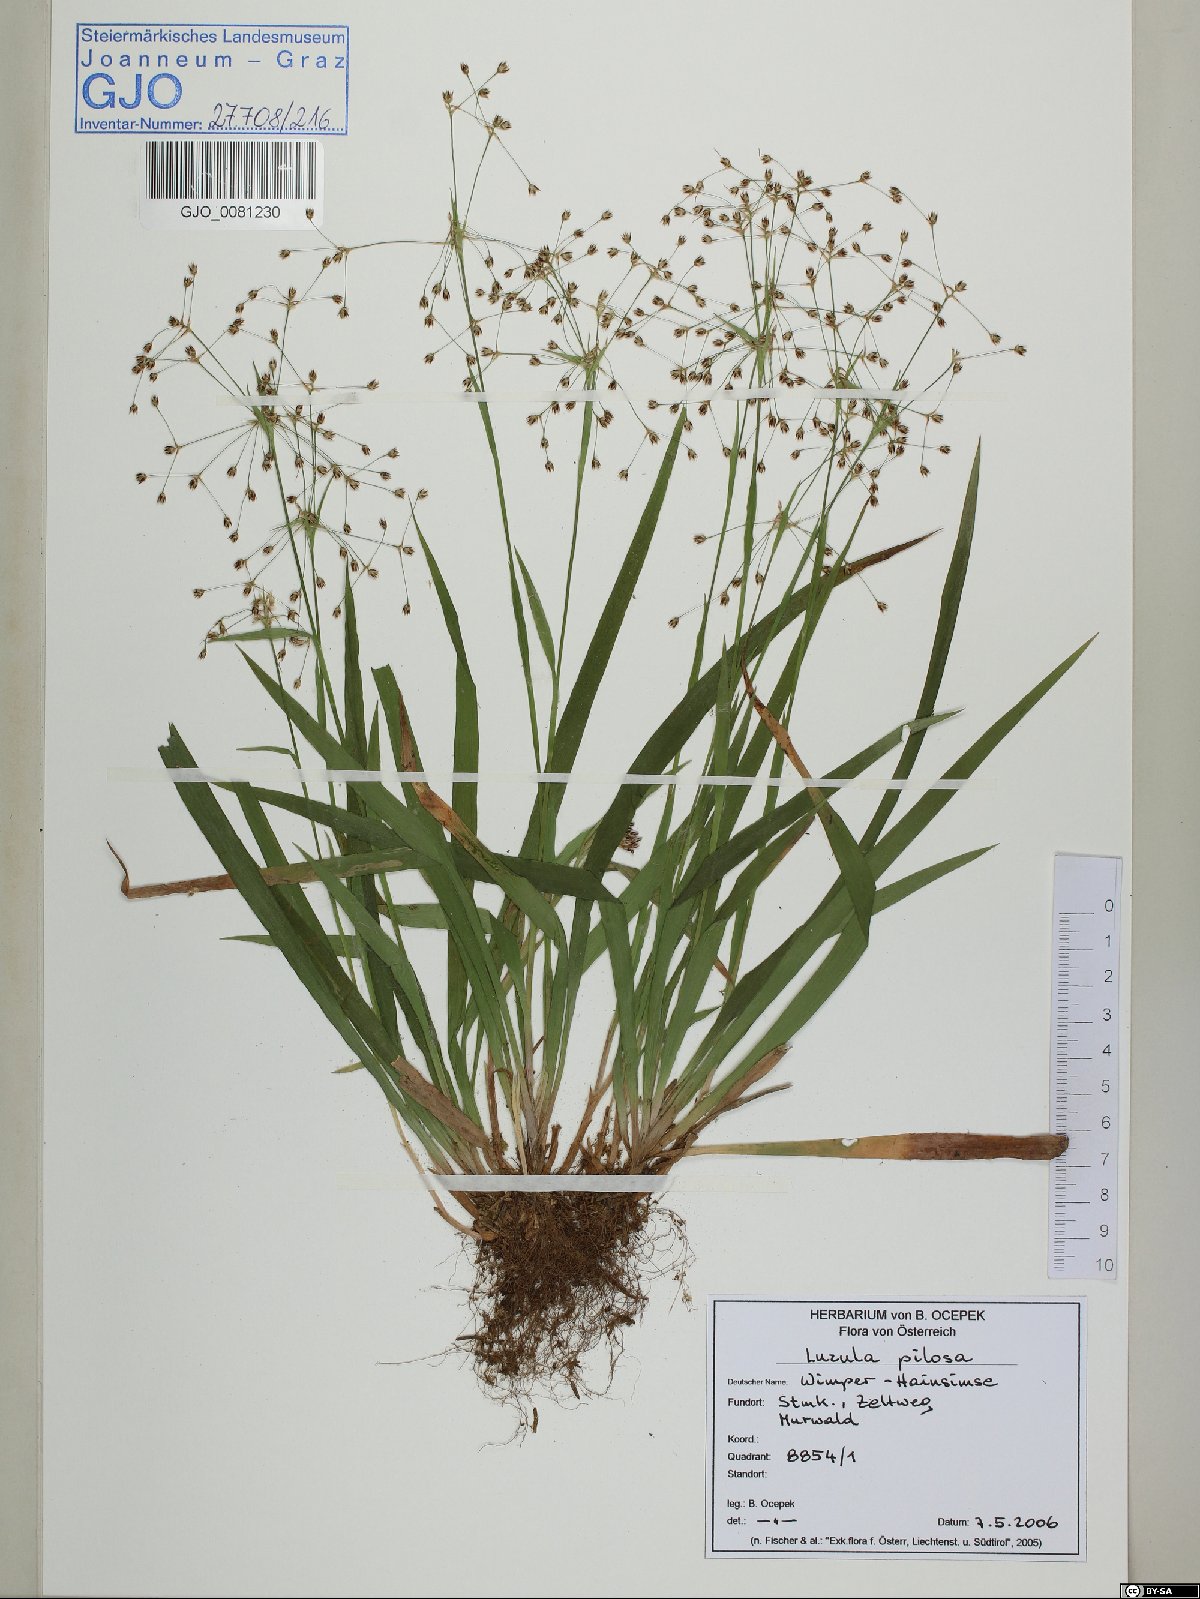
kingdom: Plantae
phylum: Tracheophyta
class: Liliopsida
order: Poales
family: Juncaceae
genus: Luzula
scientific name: Luzula pilosa
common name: Hairy wood-rush
